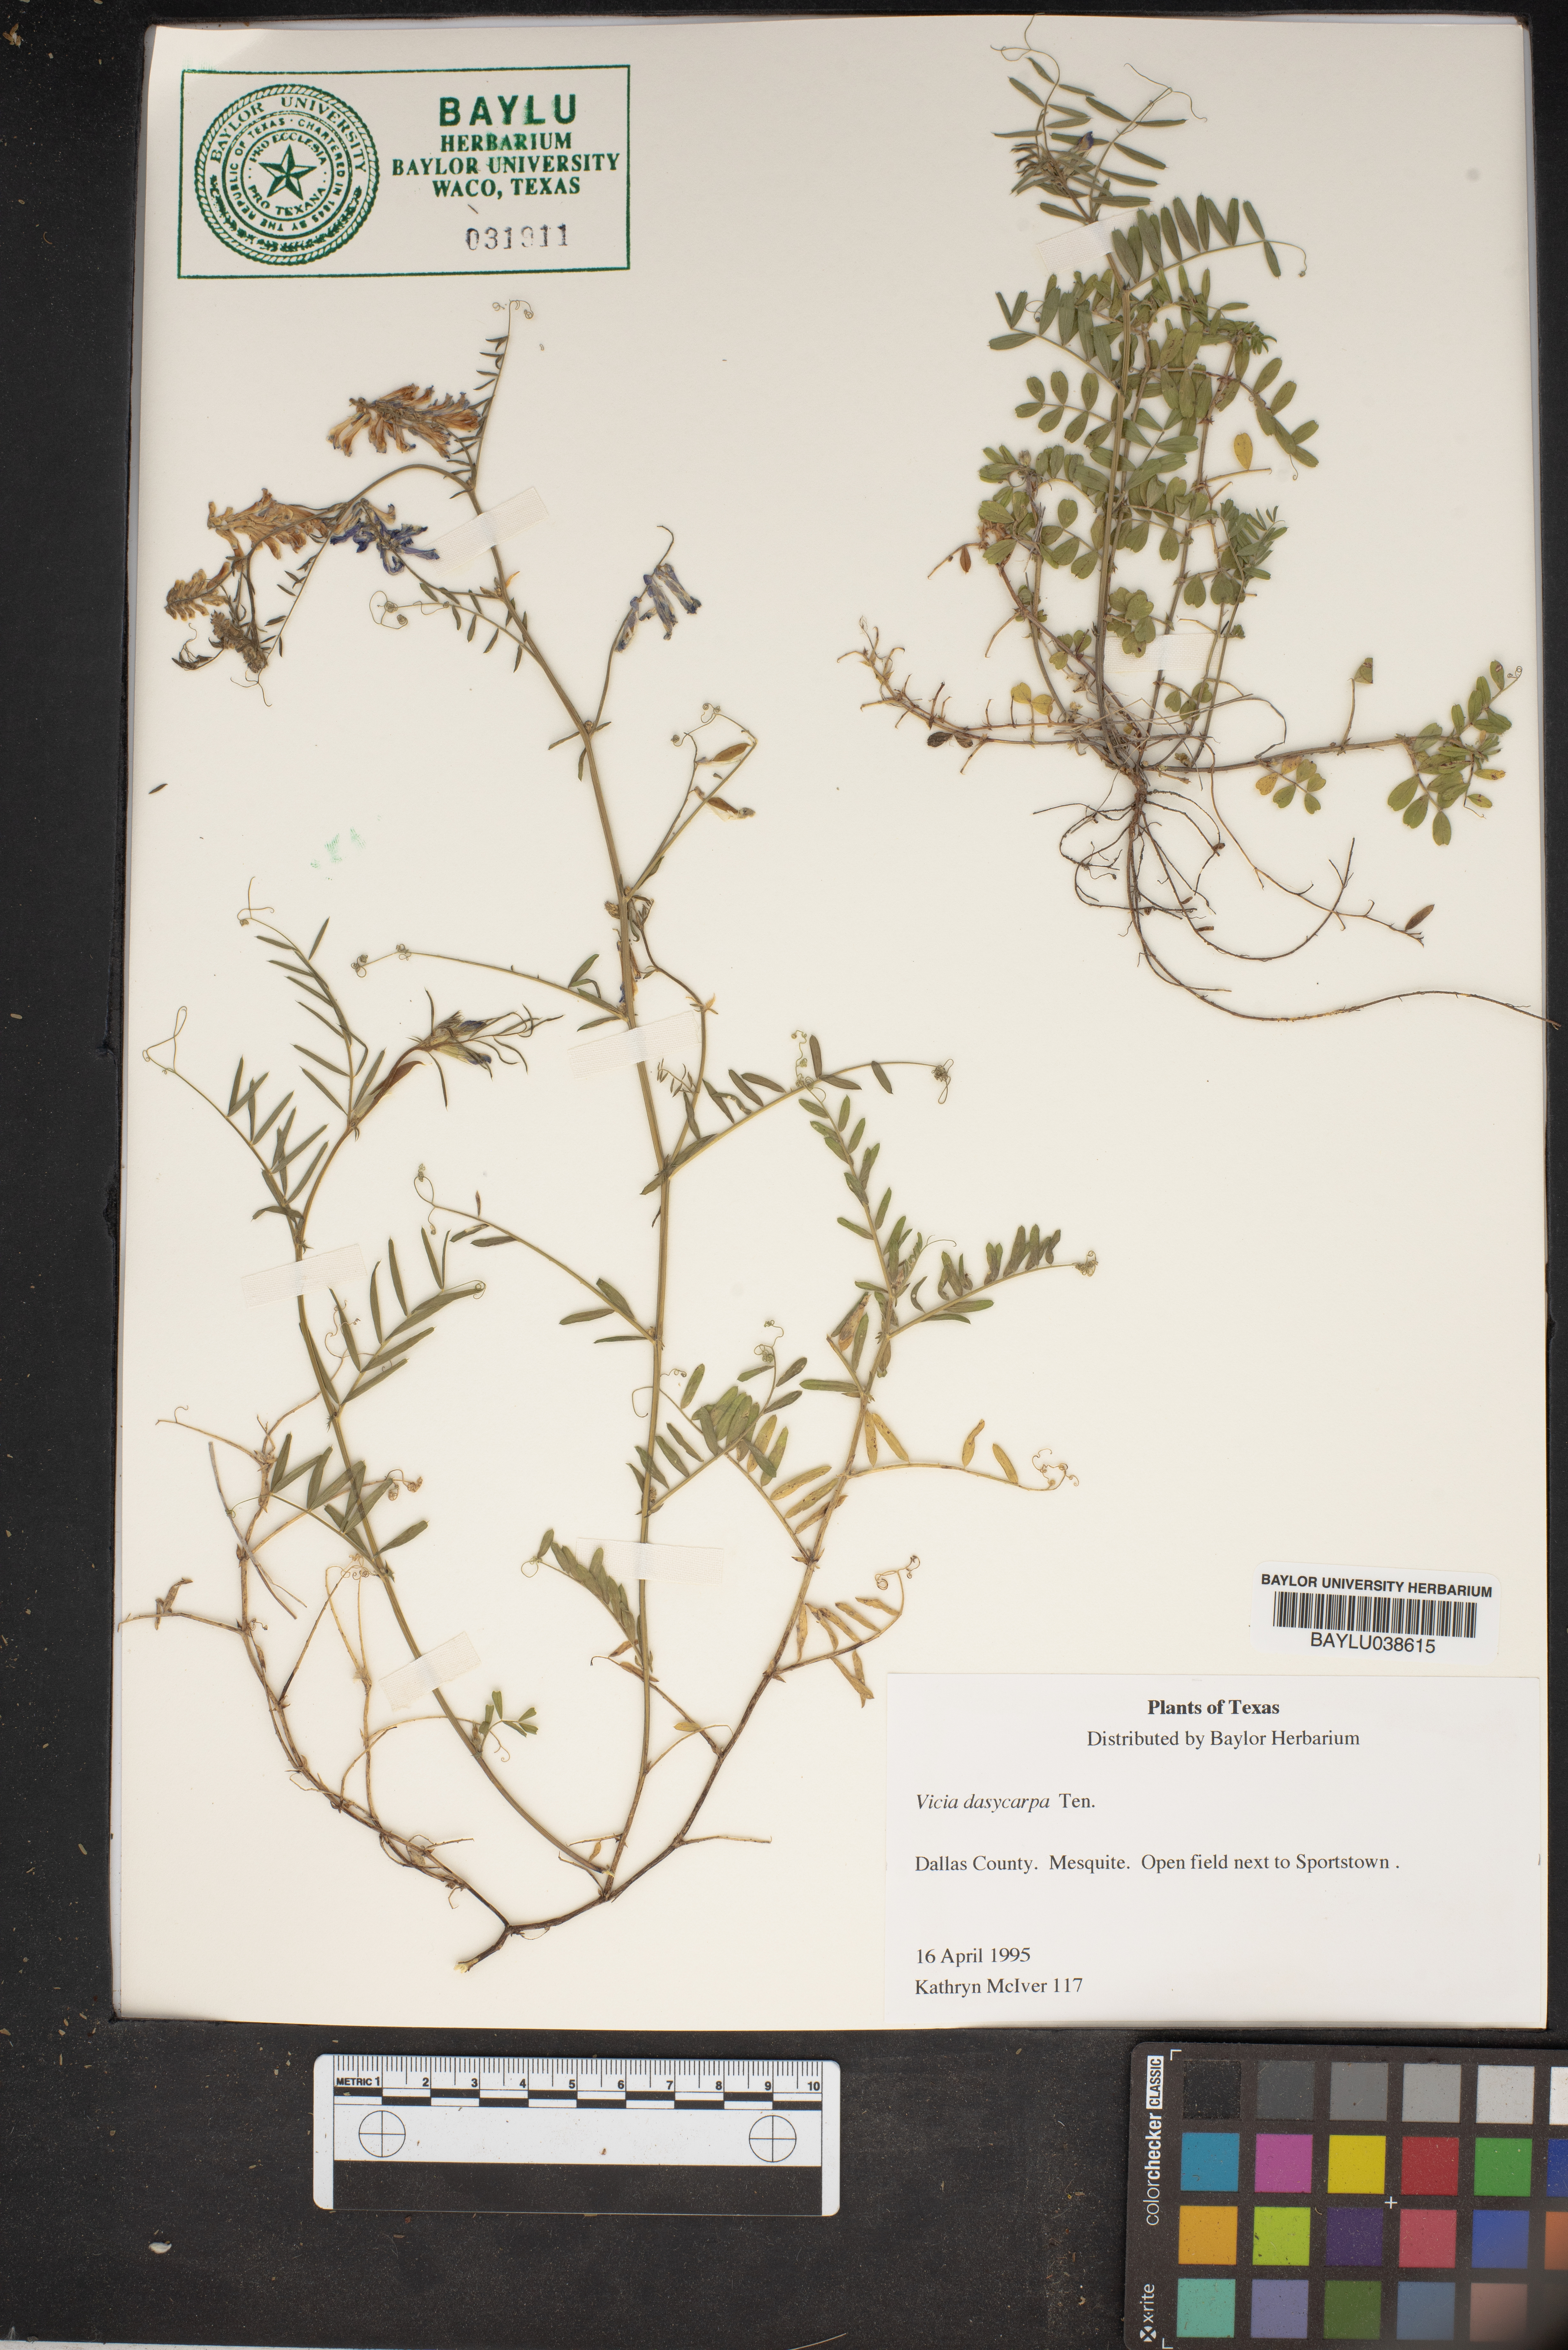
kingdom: Plantae
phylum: Tracheophyta
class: Magnoliopsida
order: Fabales
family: Fabaceae
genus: Vicia
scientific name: Vicia villosa
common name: Fodder vetch
